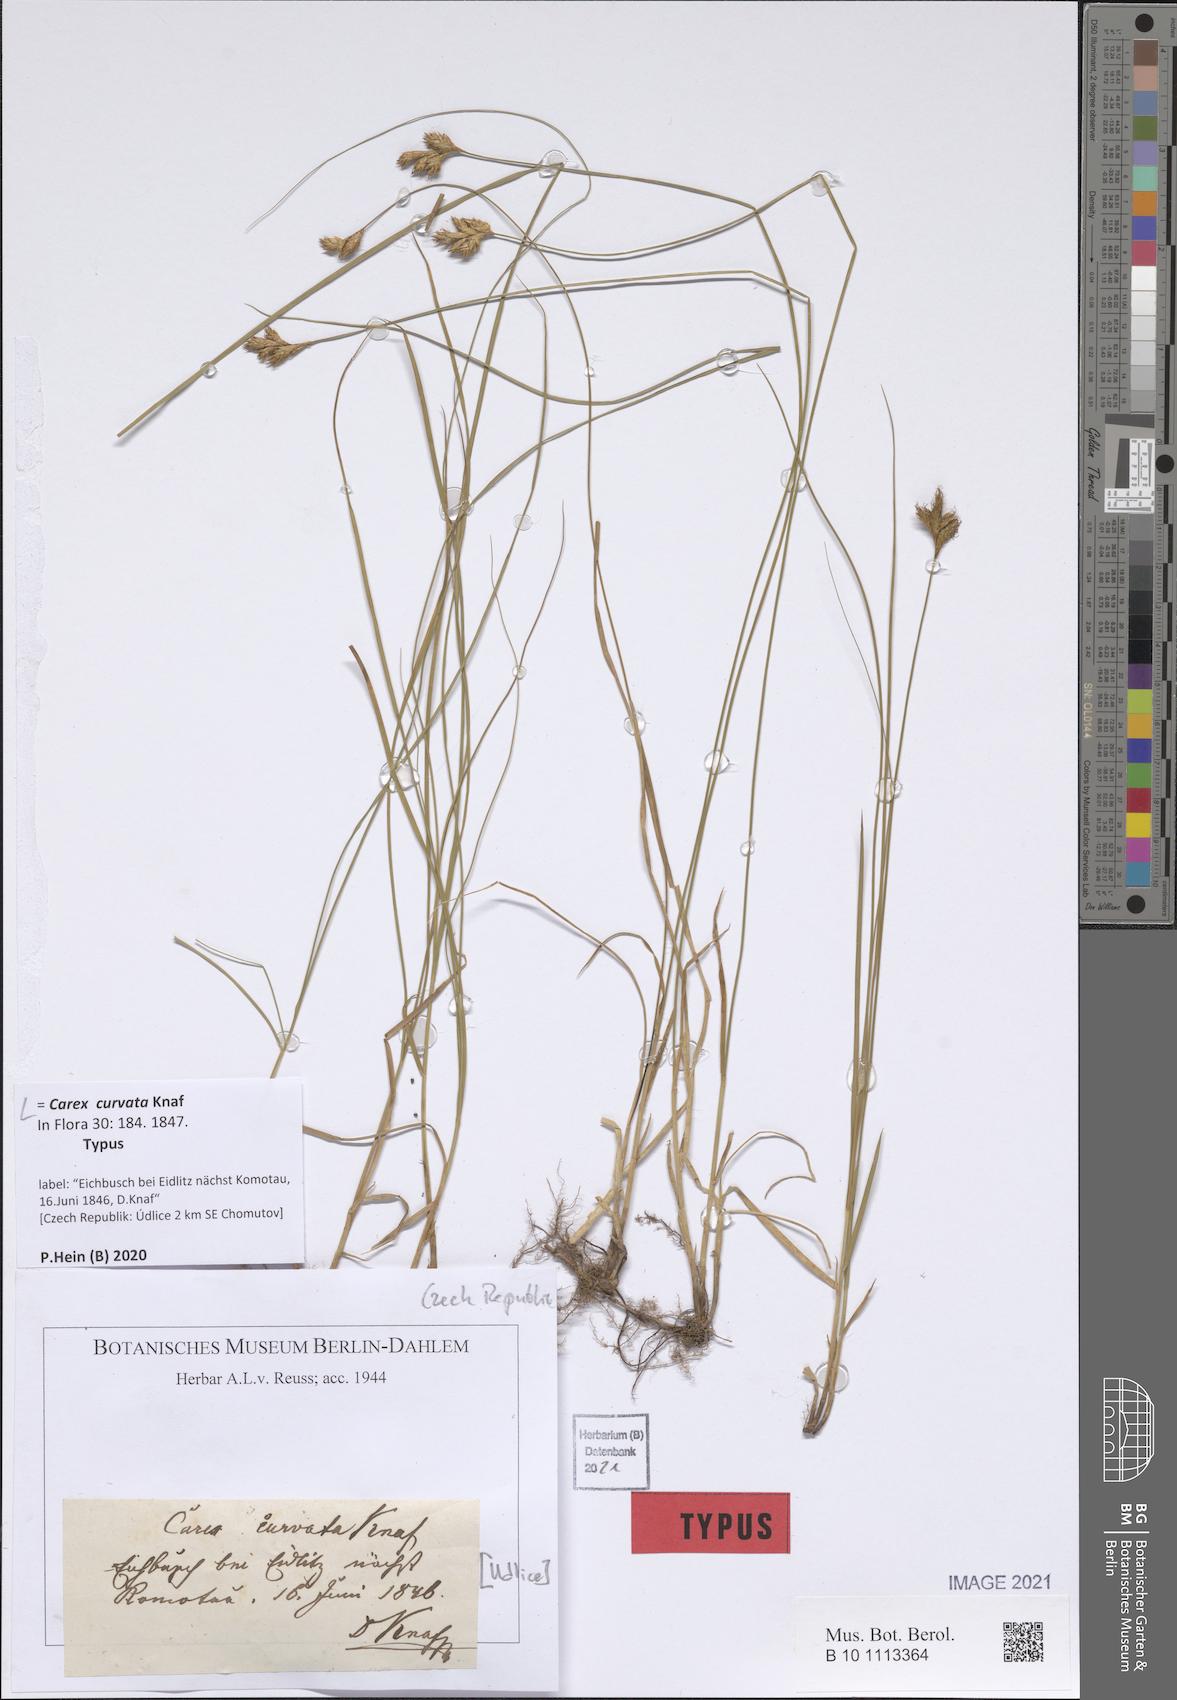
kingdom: Plantae
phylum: Tracheophyta
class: Liliopsida
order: Poales
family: Cyperaceae
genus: Carex
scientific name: Carex curvata
